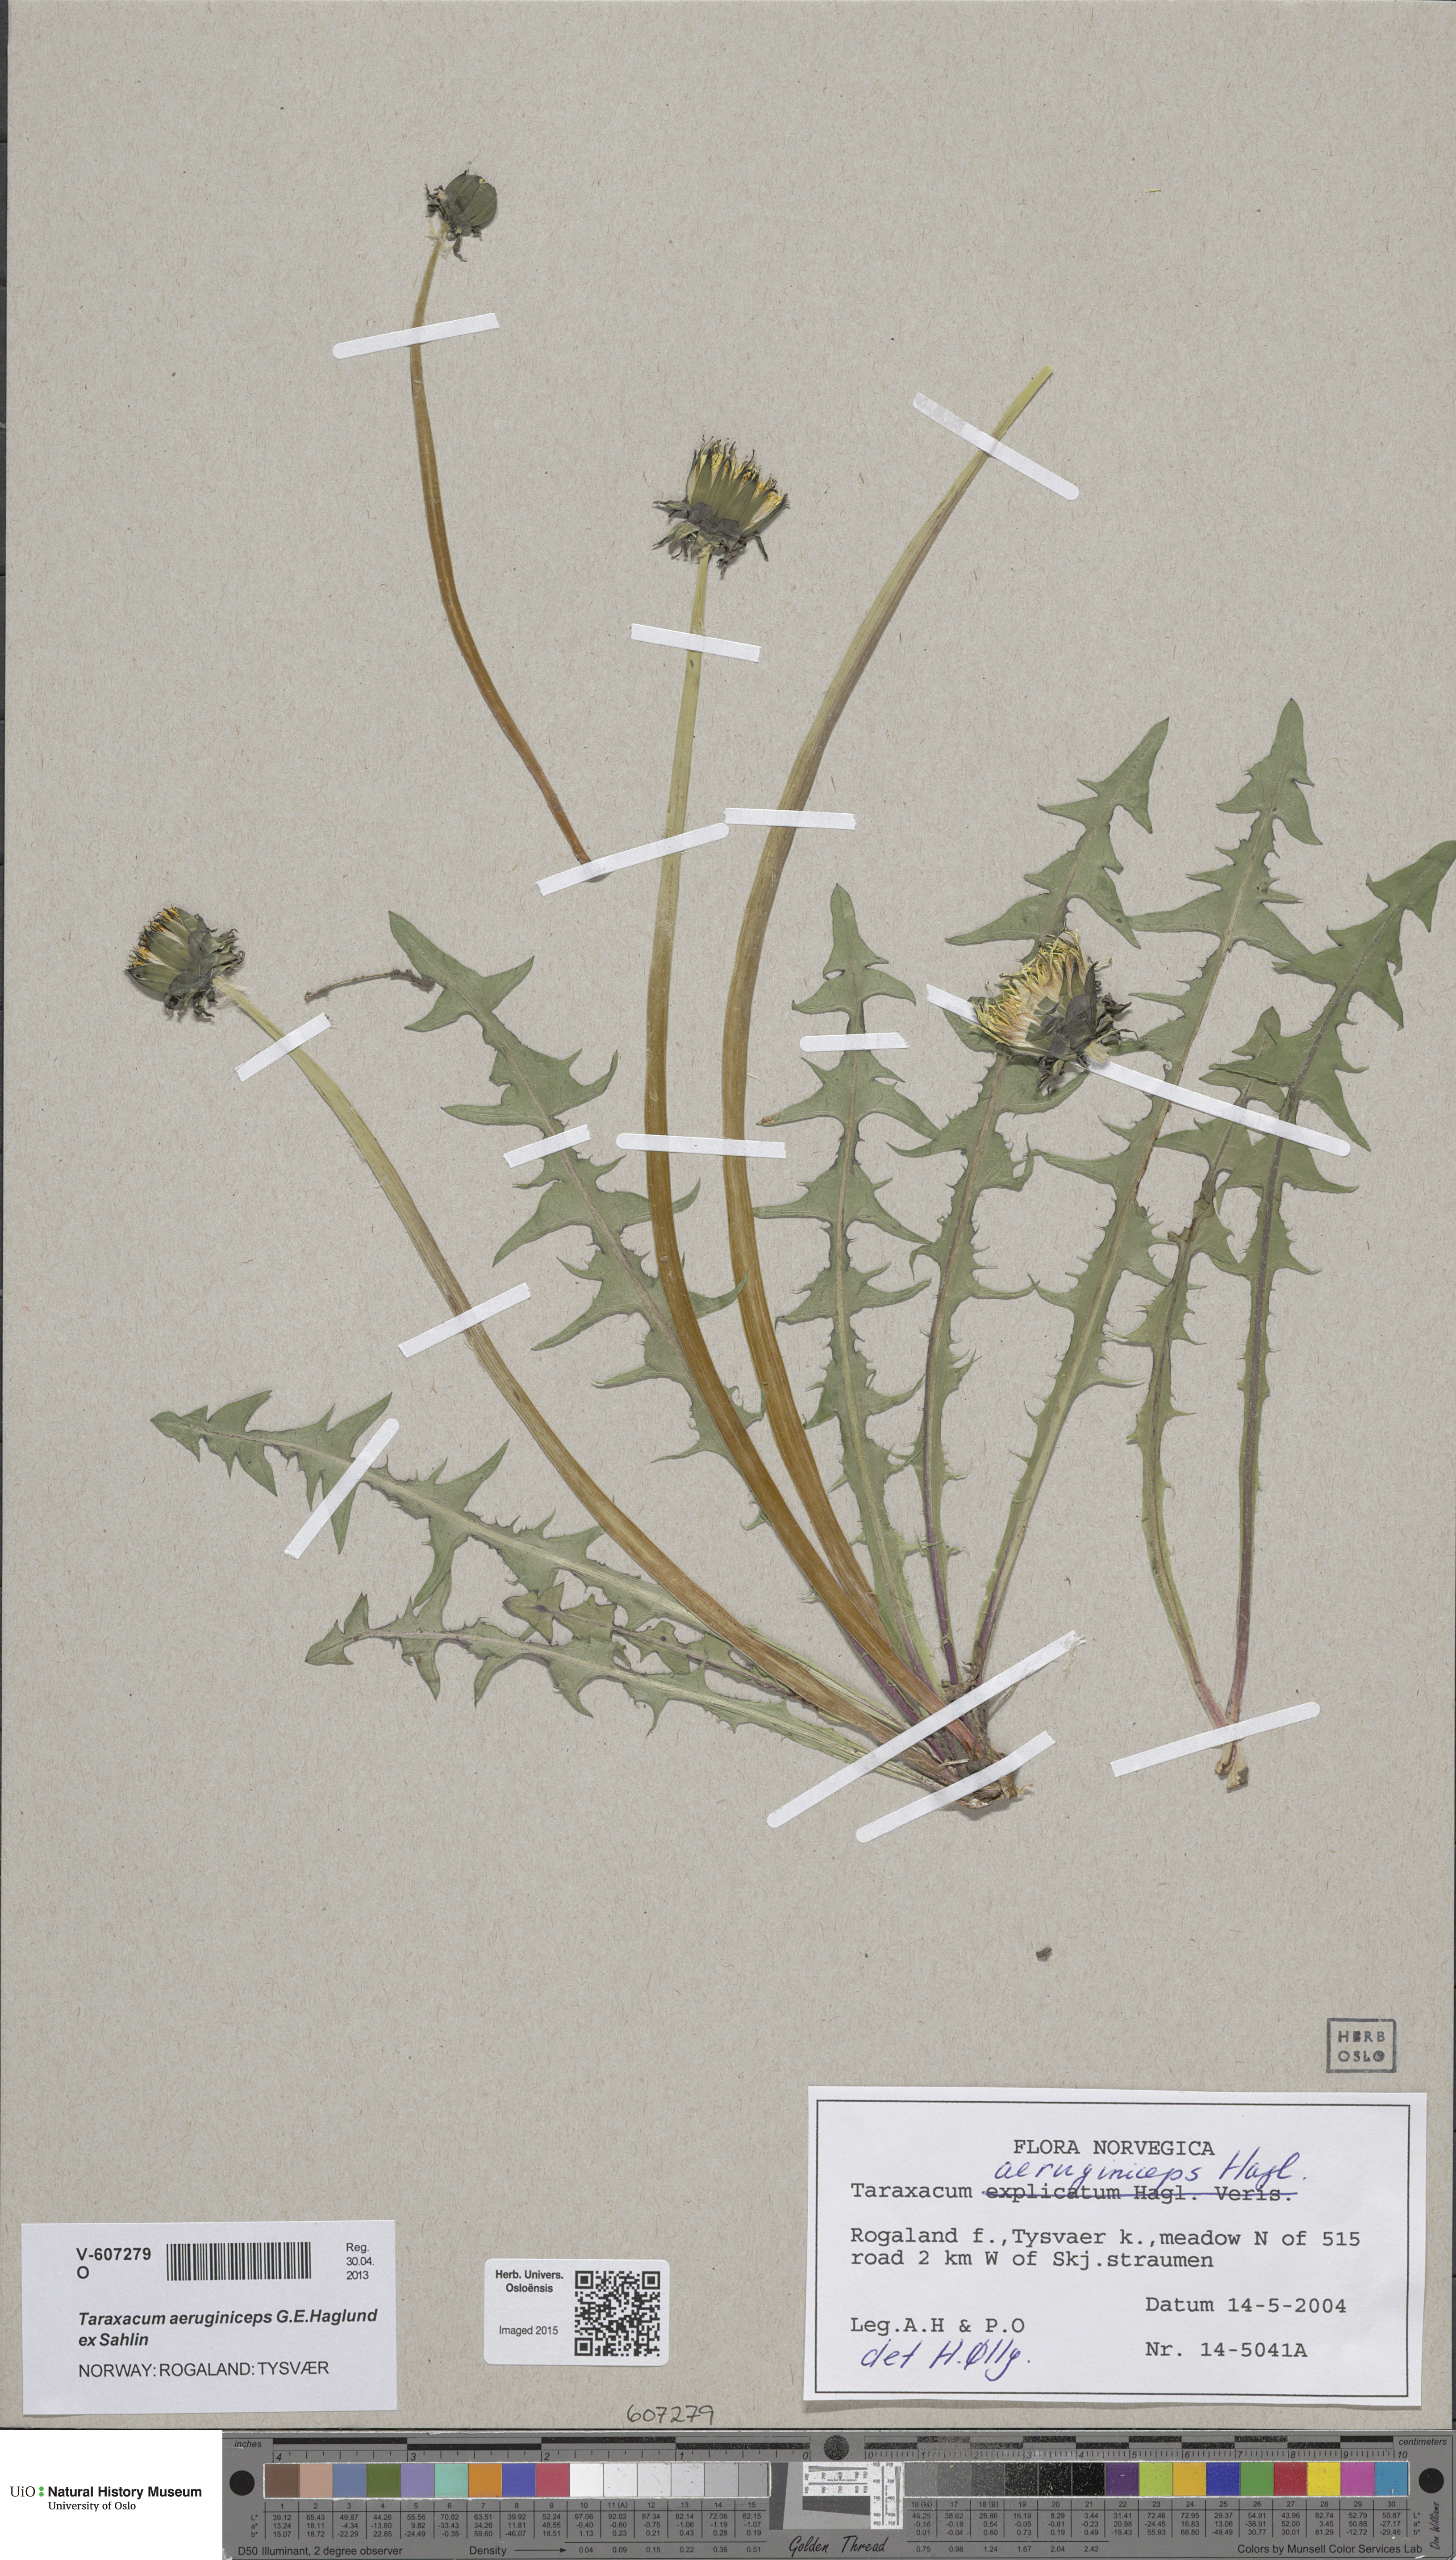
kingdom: Plantae
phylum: Tracheophyta
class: Magnoliopsida
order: Asterales
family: Asteraceae
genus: Taraxacum
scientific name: Taraxacum aeruginiceps
